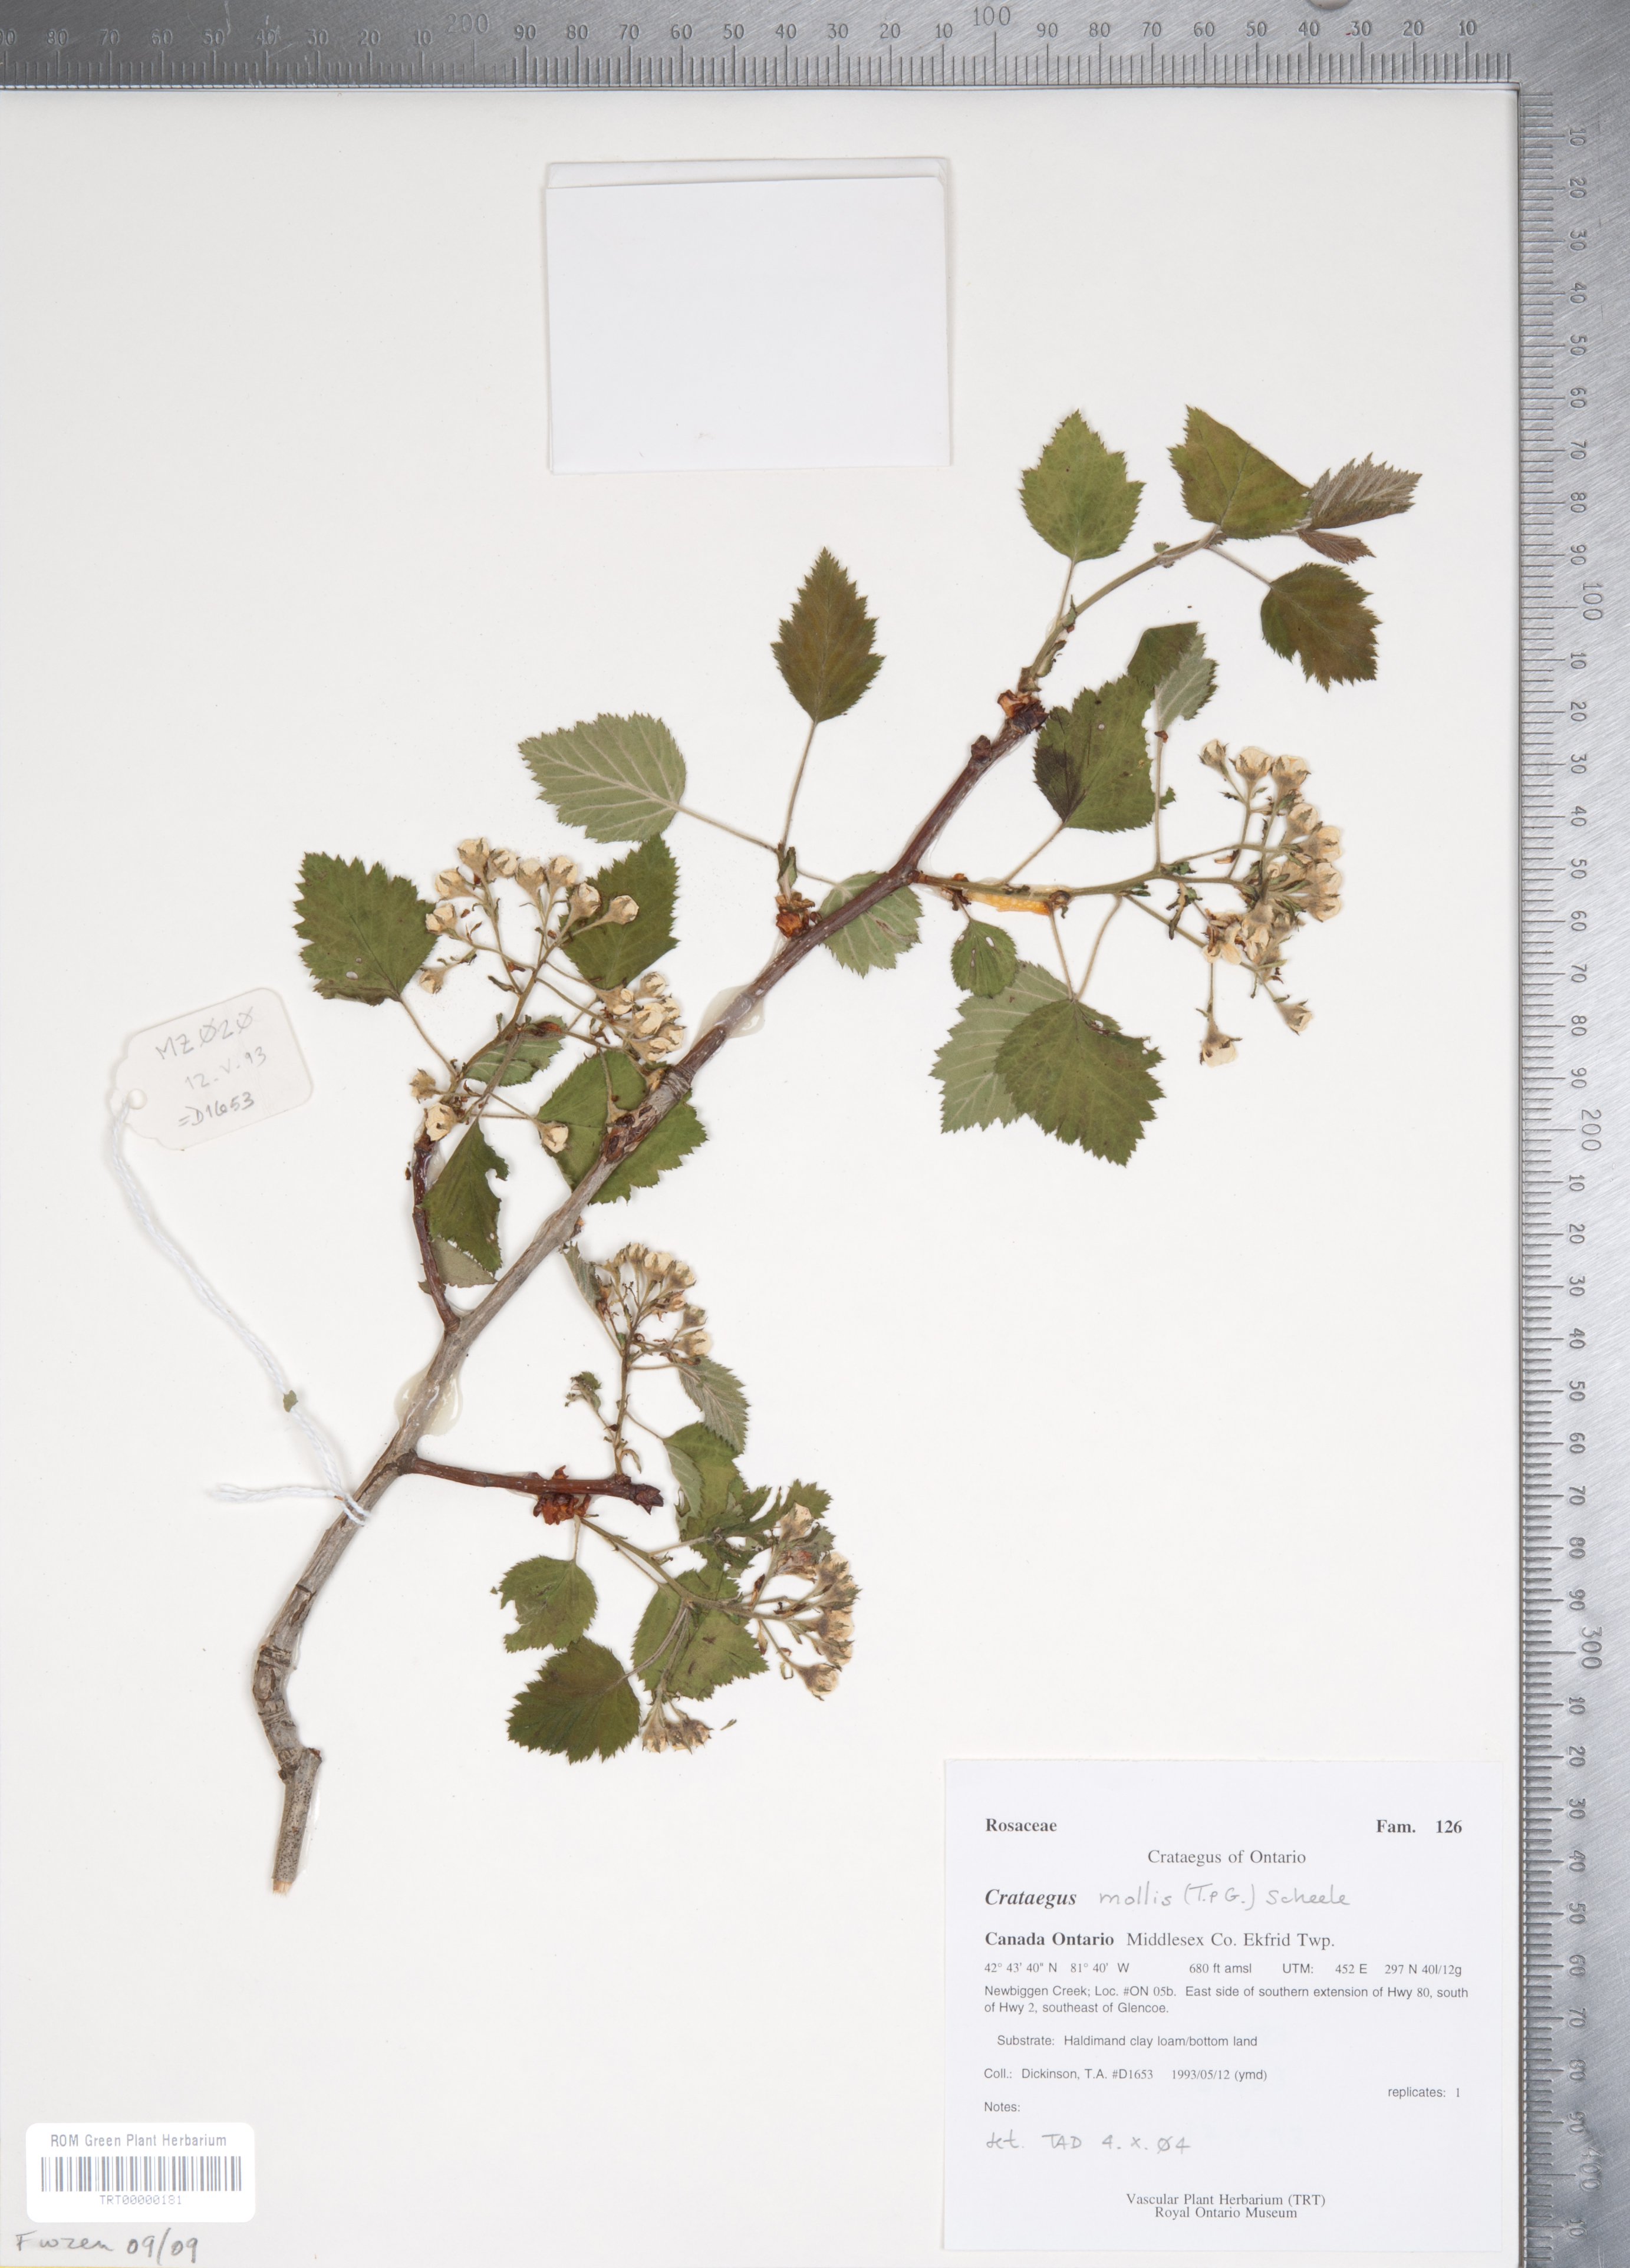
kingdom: Plantae
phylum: Tracheophyta
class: Magnoliopsida
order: Rosales
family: Rosaceae
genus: Crataegus
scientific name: Crataegus mollis
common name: Downy hawthorn
